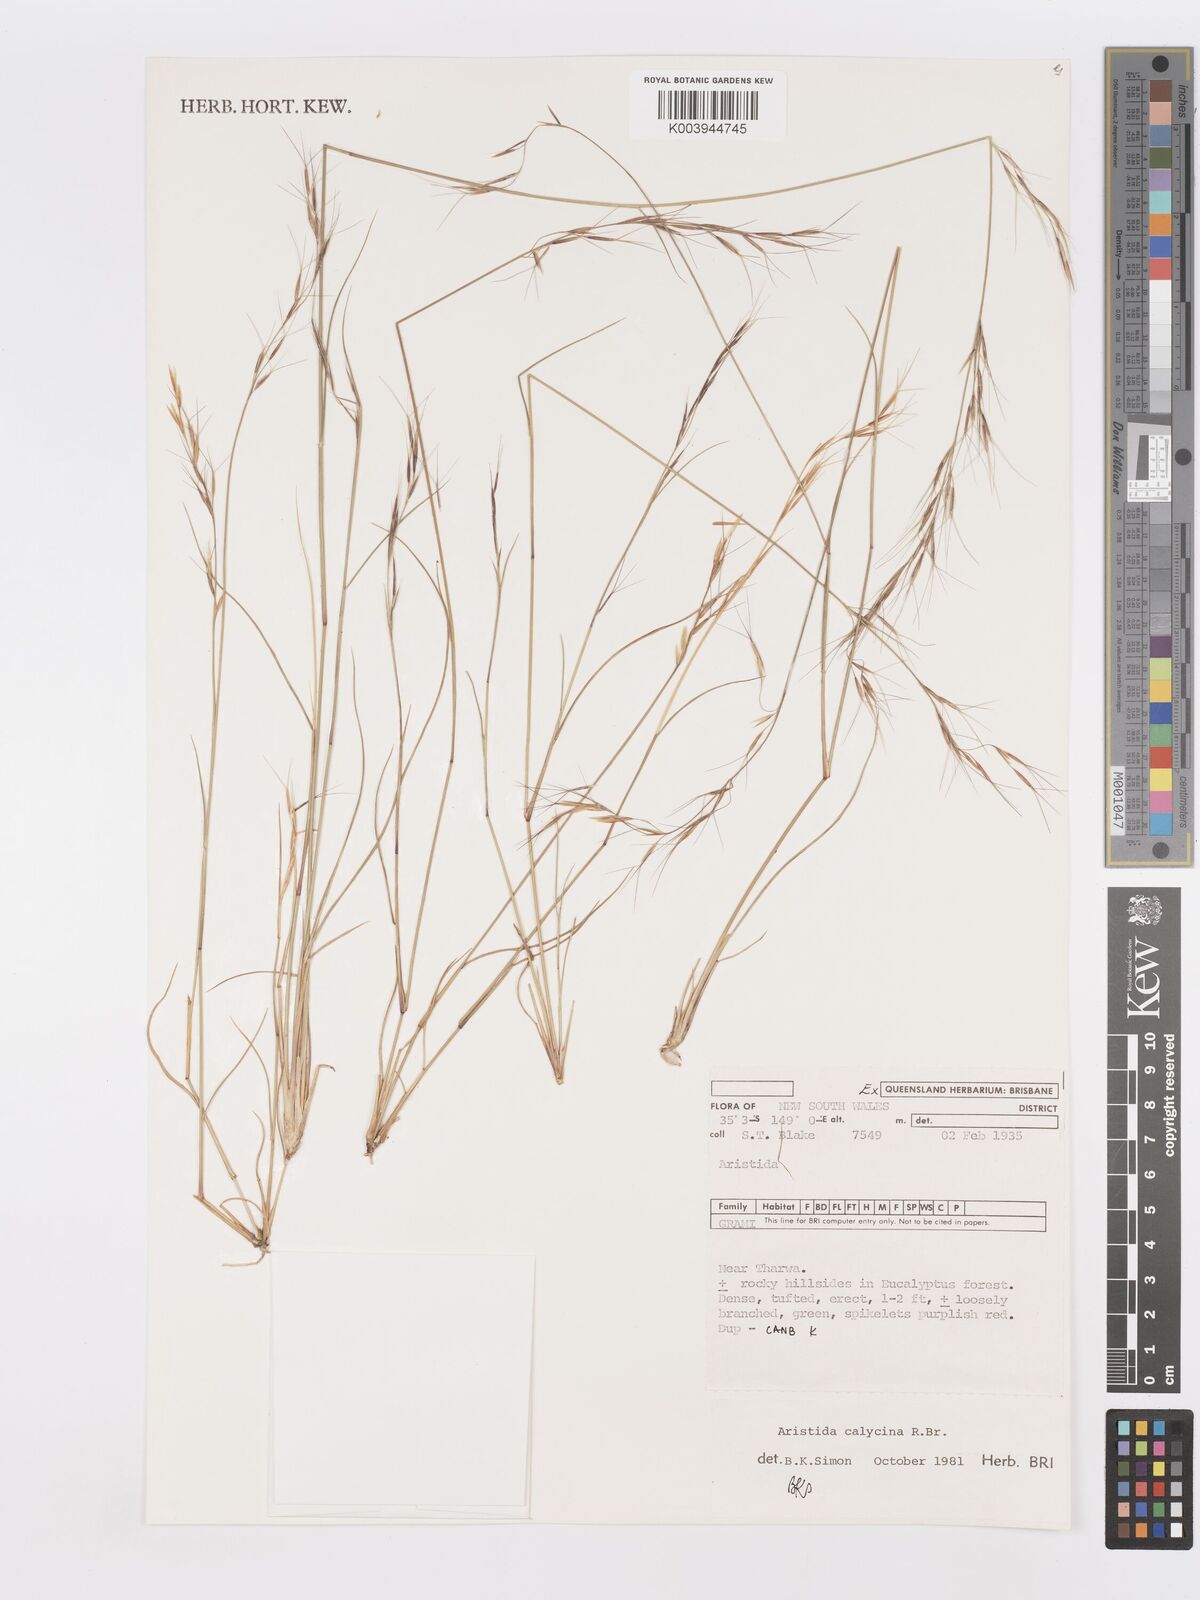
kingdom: Plantae
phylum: Tracheophyta
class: Liliopsida
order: Poales
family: Poaceae
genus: Aristida
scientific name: Aristida calycina
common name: Dark wire grass
